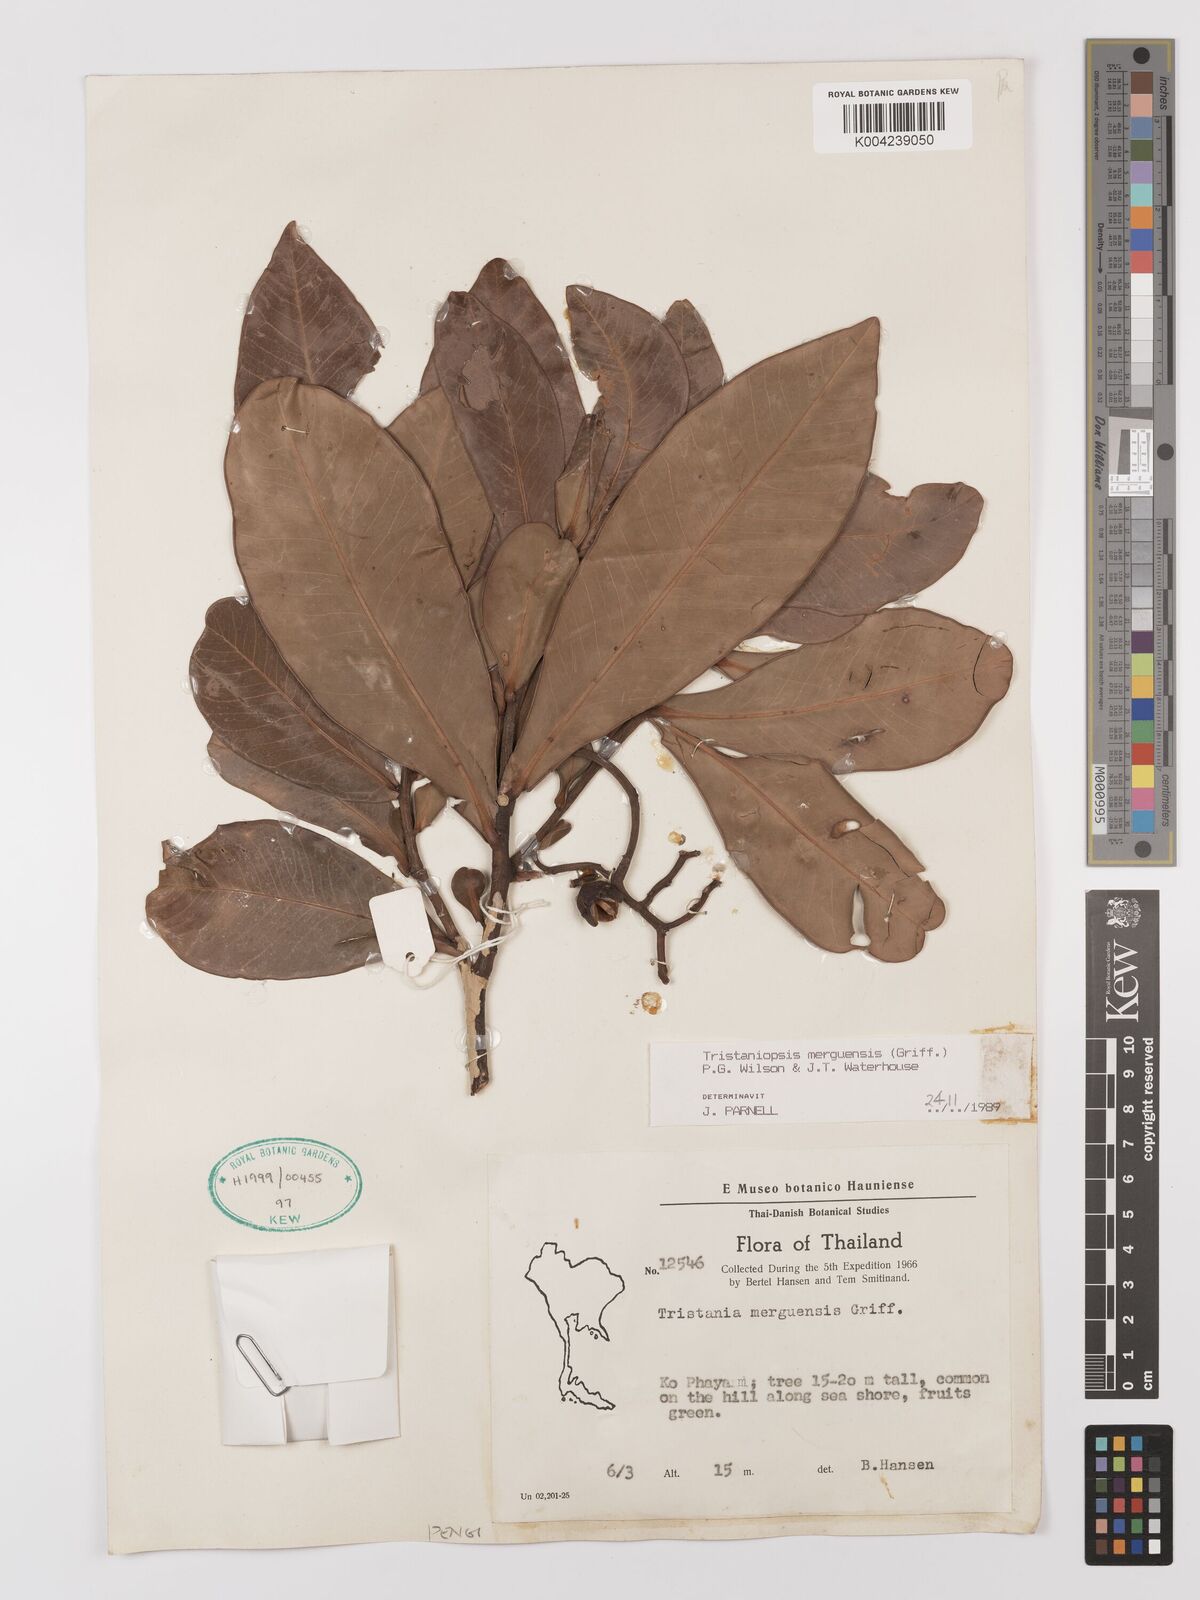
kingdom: Plantae
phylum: Tracheophyta
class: Magnoliopsida
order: Myrtales
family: Myrtaceae
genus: Tristaniopsis
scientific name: Tristaniopsis merguensis
